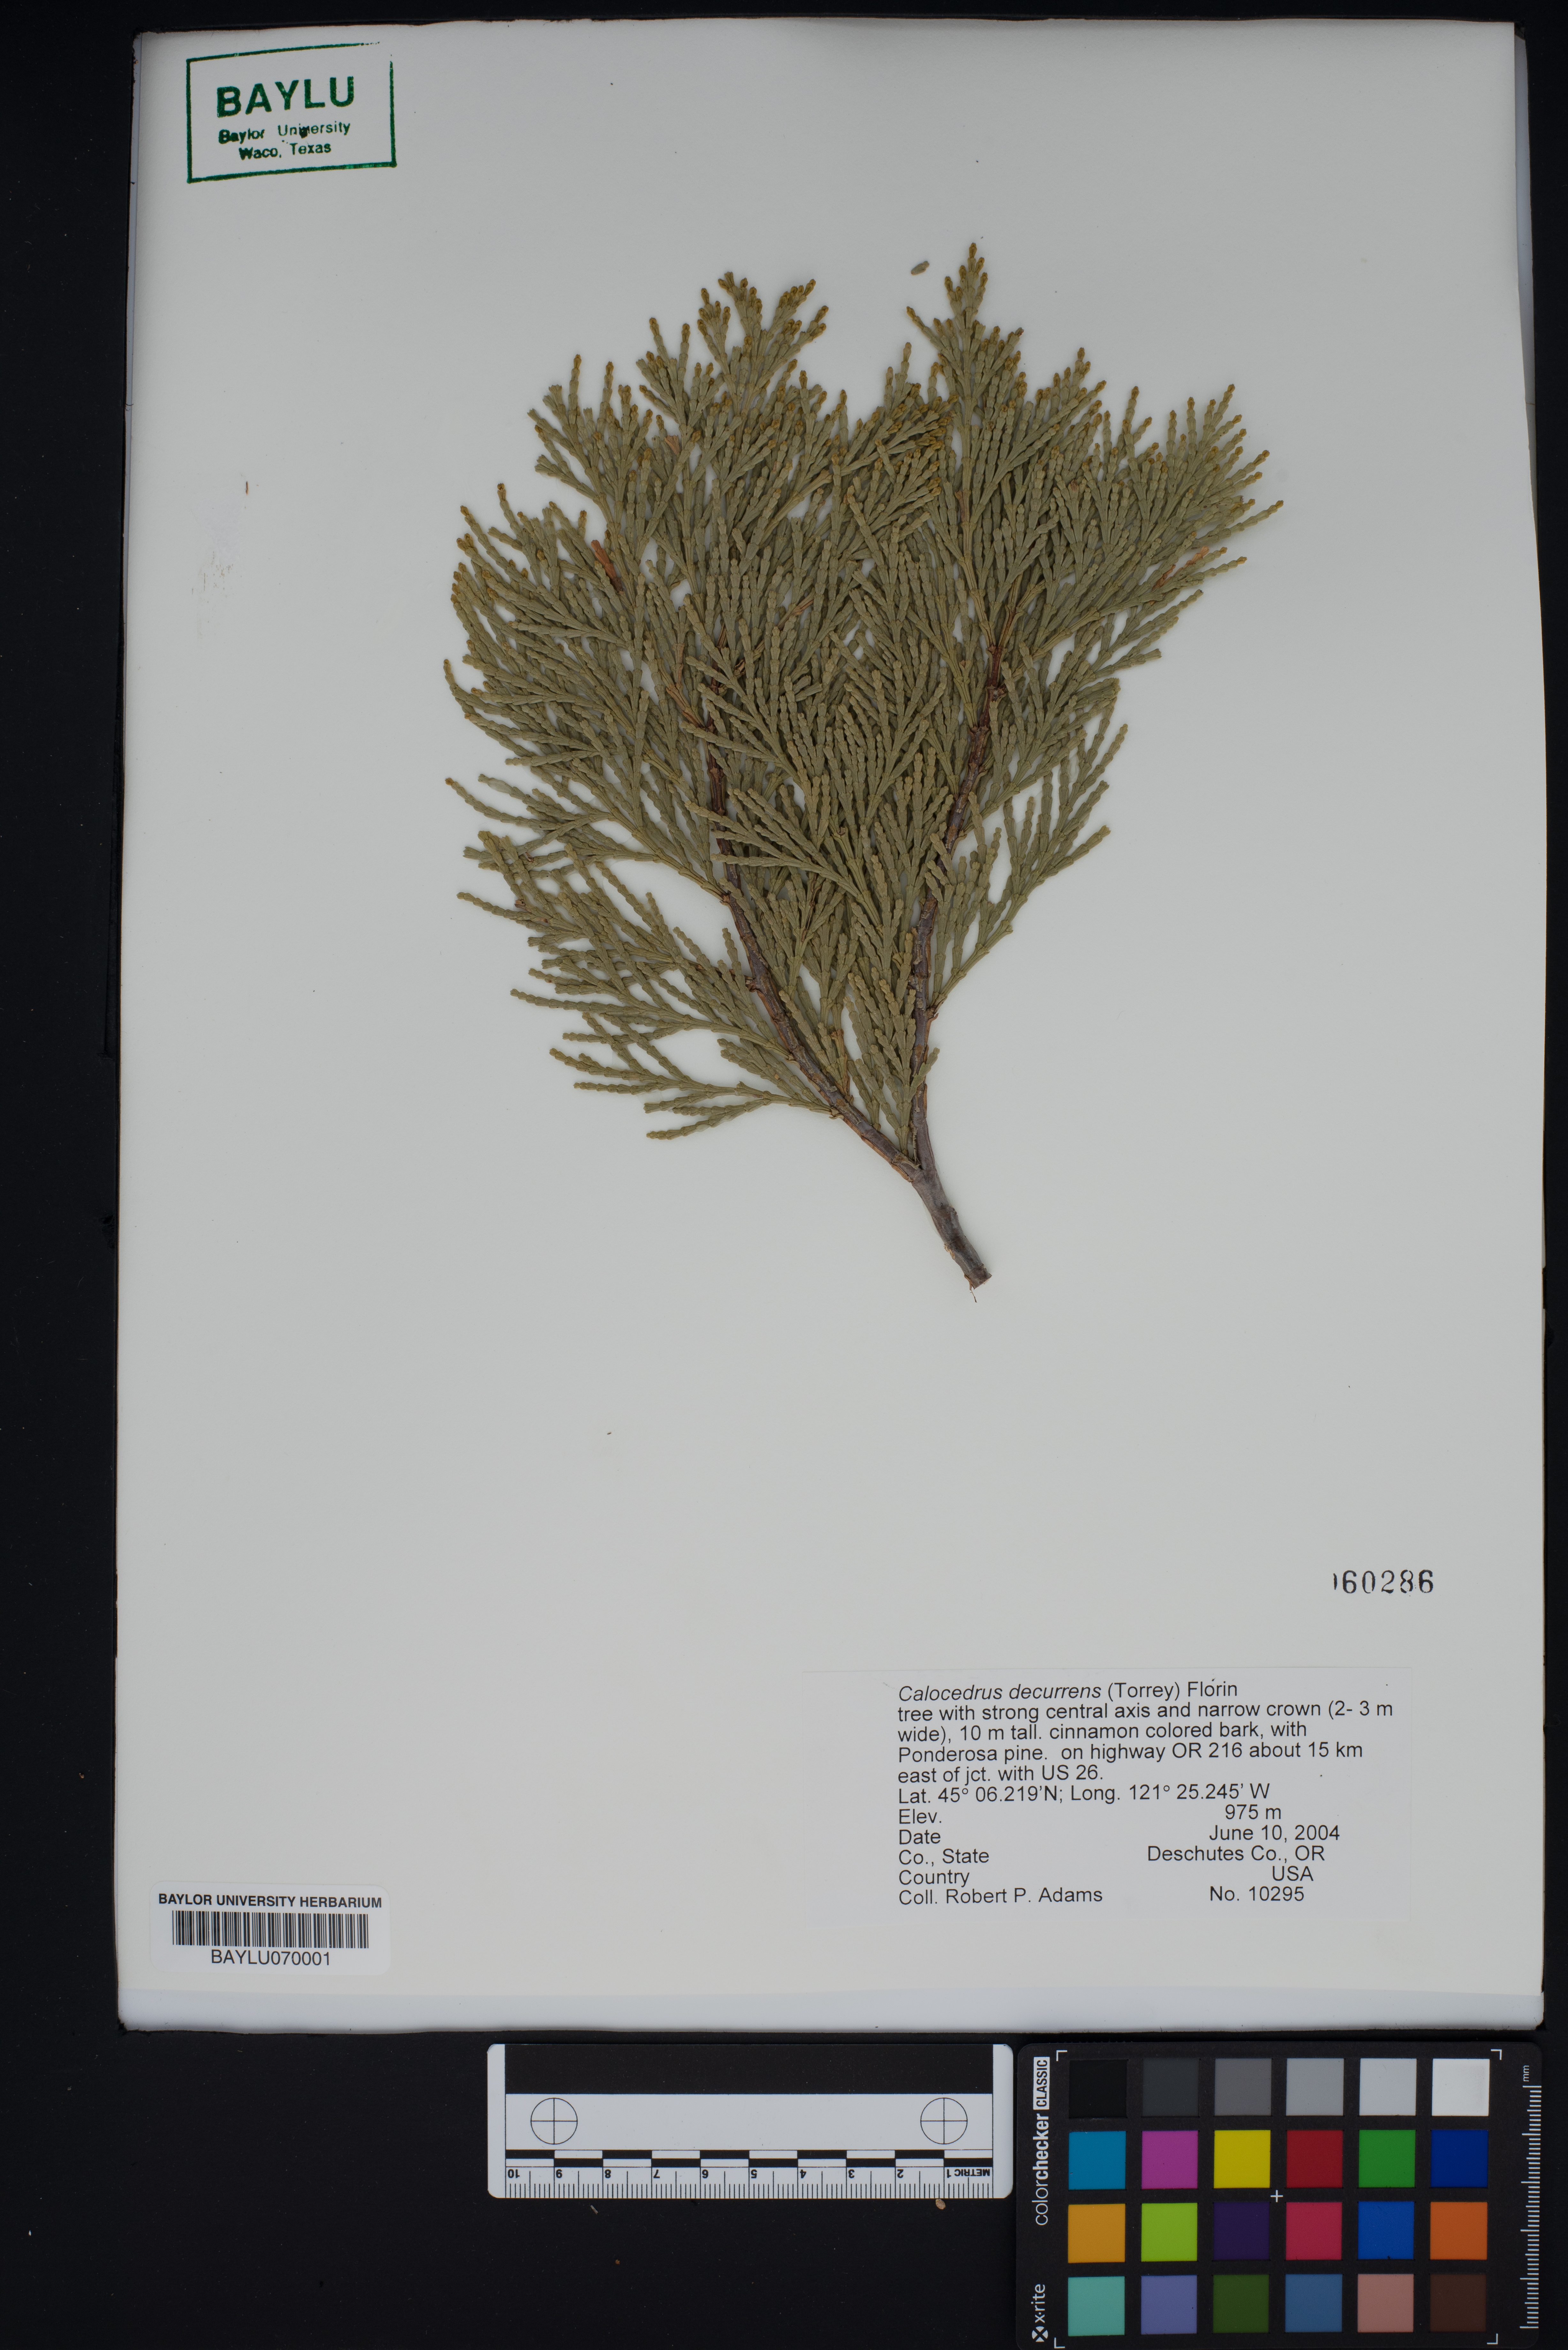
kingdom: Plantae
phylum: Tracheophyta
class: Pinopsida
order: Pinales
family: Cupressaceae
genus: Calocedrus
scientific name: Calocedrus decurrens
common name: Californian incense-cedar
